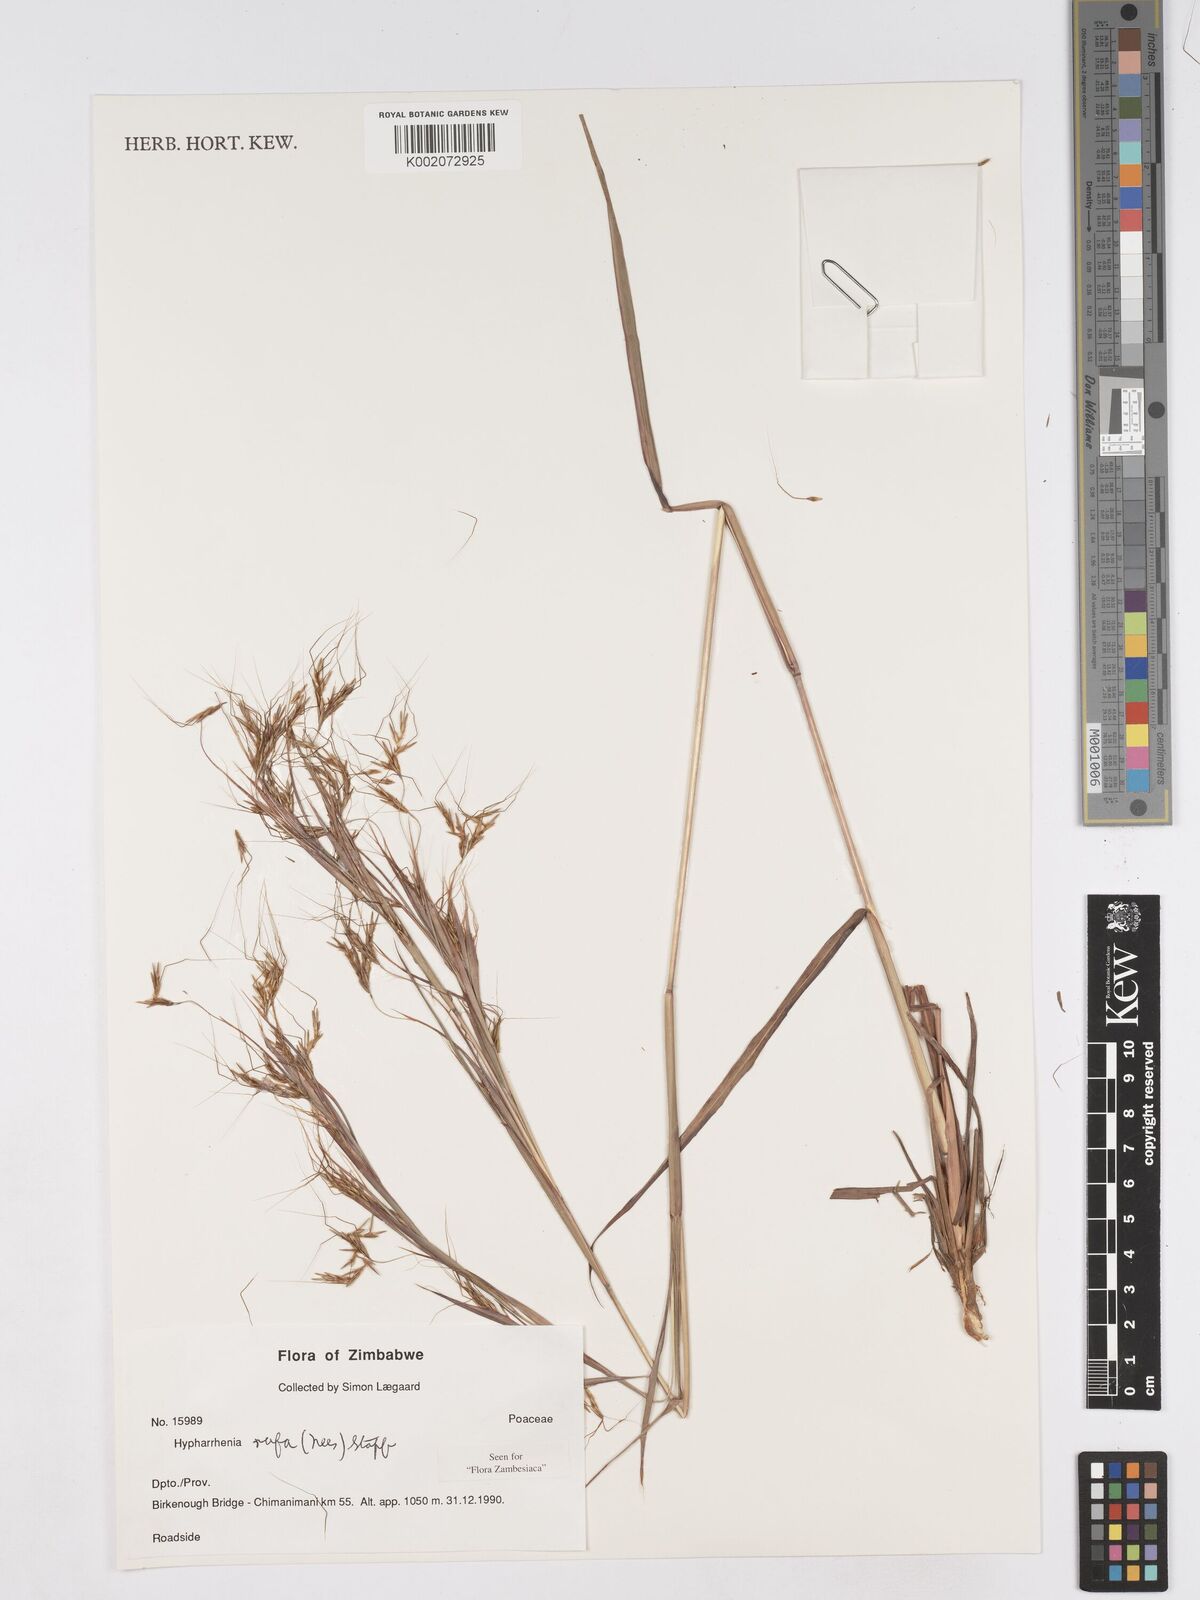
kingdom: Plantae
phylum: Tracheophyta
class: Liliopsida
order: Poales
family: Poaceae
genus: Hyparrhenia
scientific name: Hyparrhenia rufa
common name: Jaraguagrass
